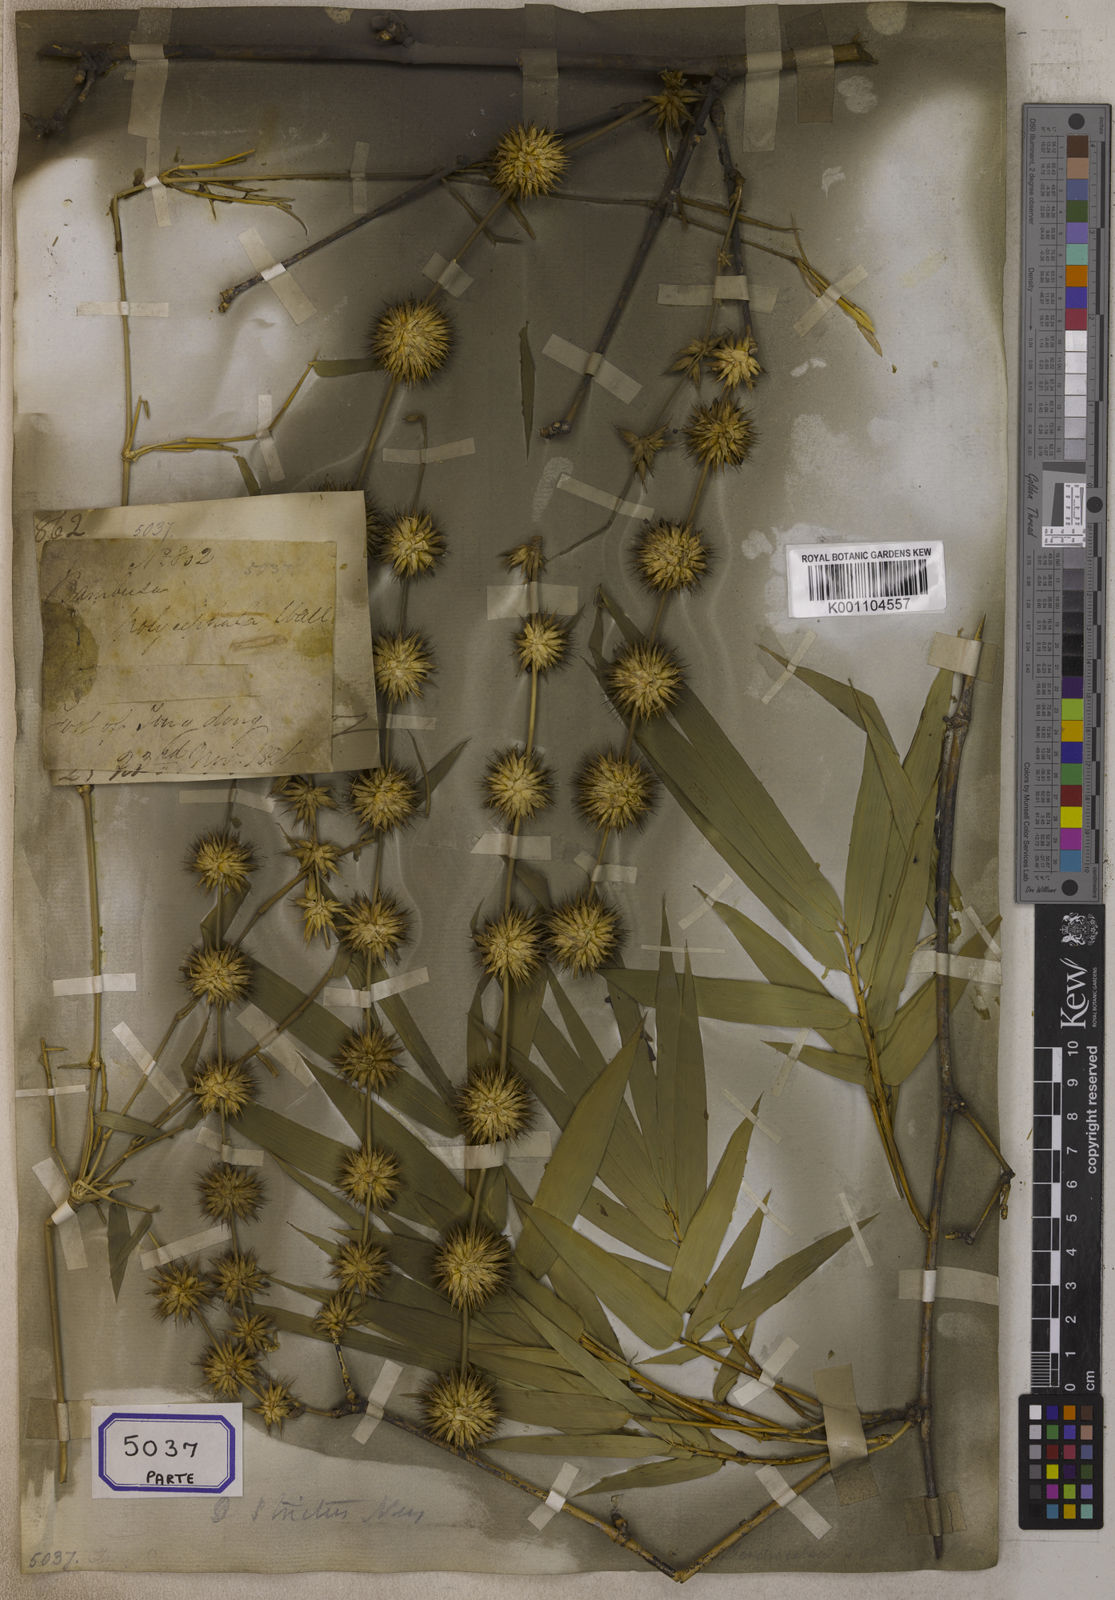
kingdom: Plantae
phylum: Tracheophyta
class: Liliopsida
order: Poales
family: Poaceae
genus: Bambusa
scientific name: Bambusa
